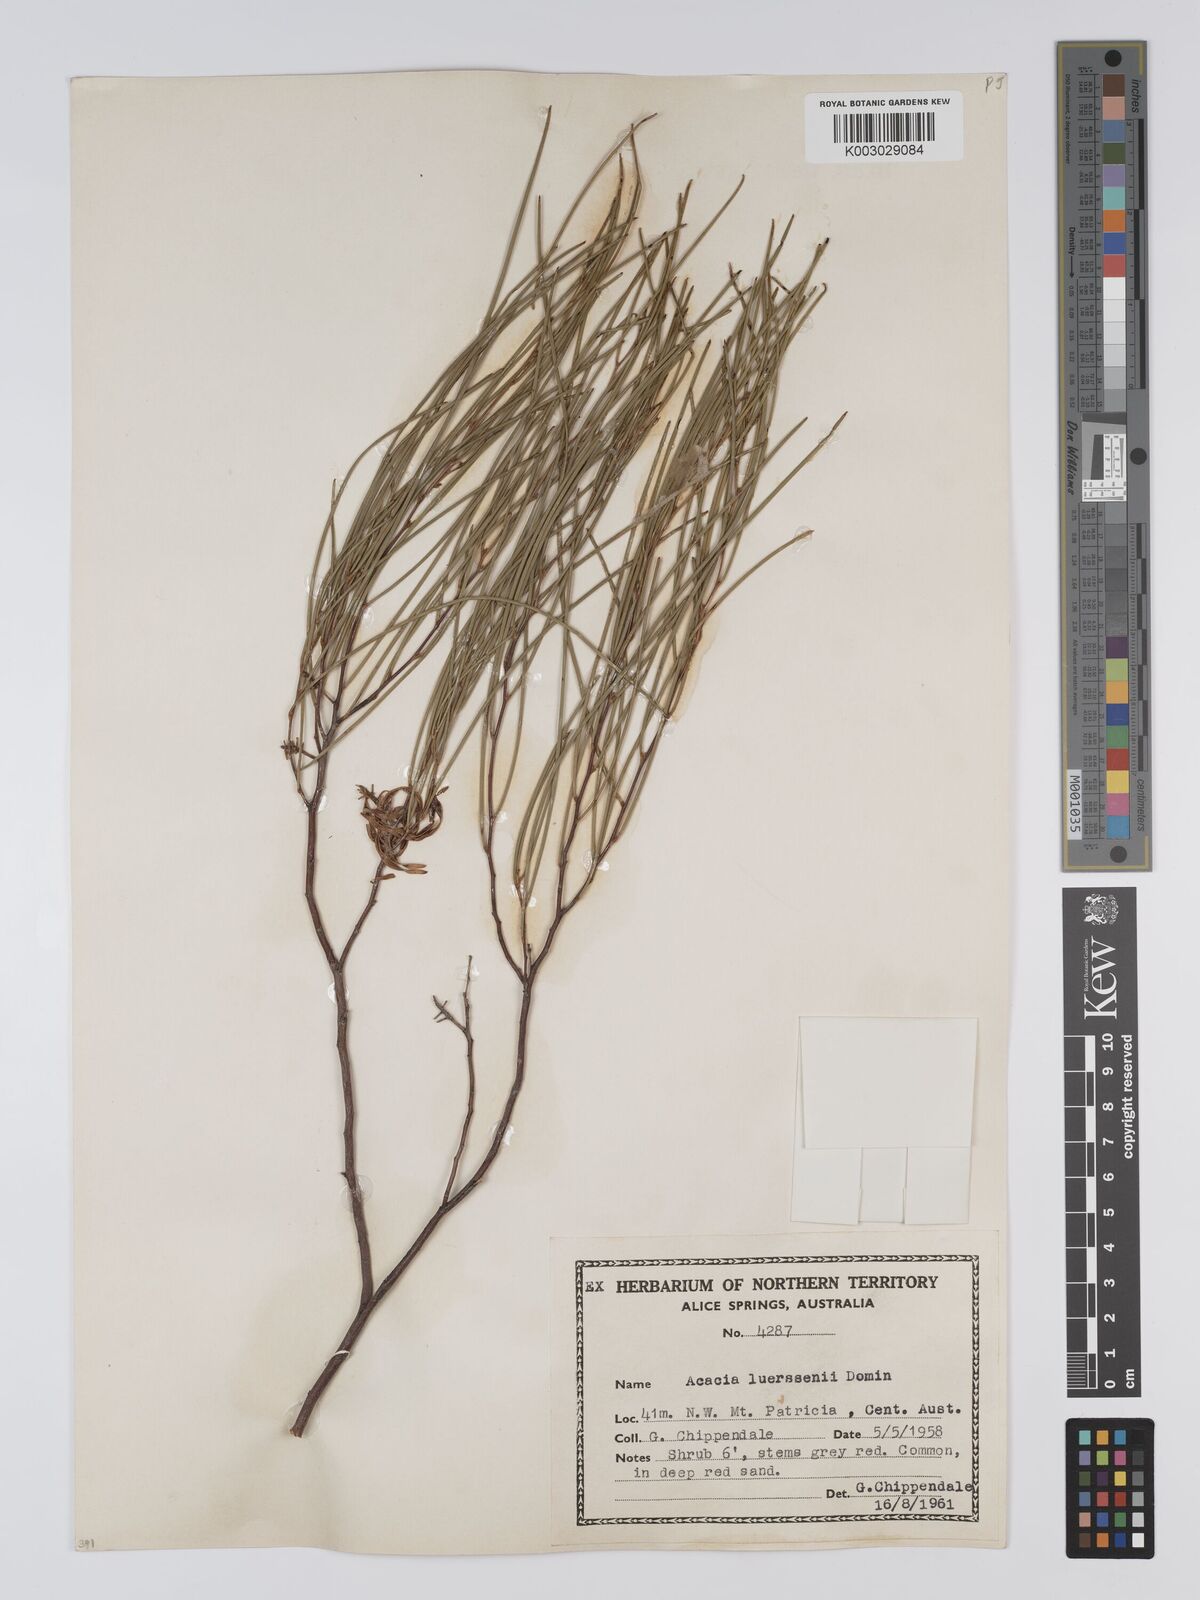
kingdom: Plantae
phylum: Tracheophyta
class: Magnoliopsida
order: Fabales
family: Fabaceae
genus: Acacia
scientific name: Acacia tenuissima
